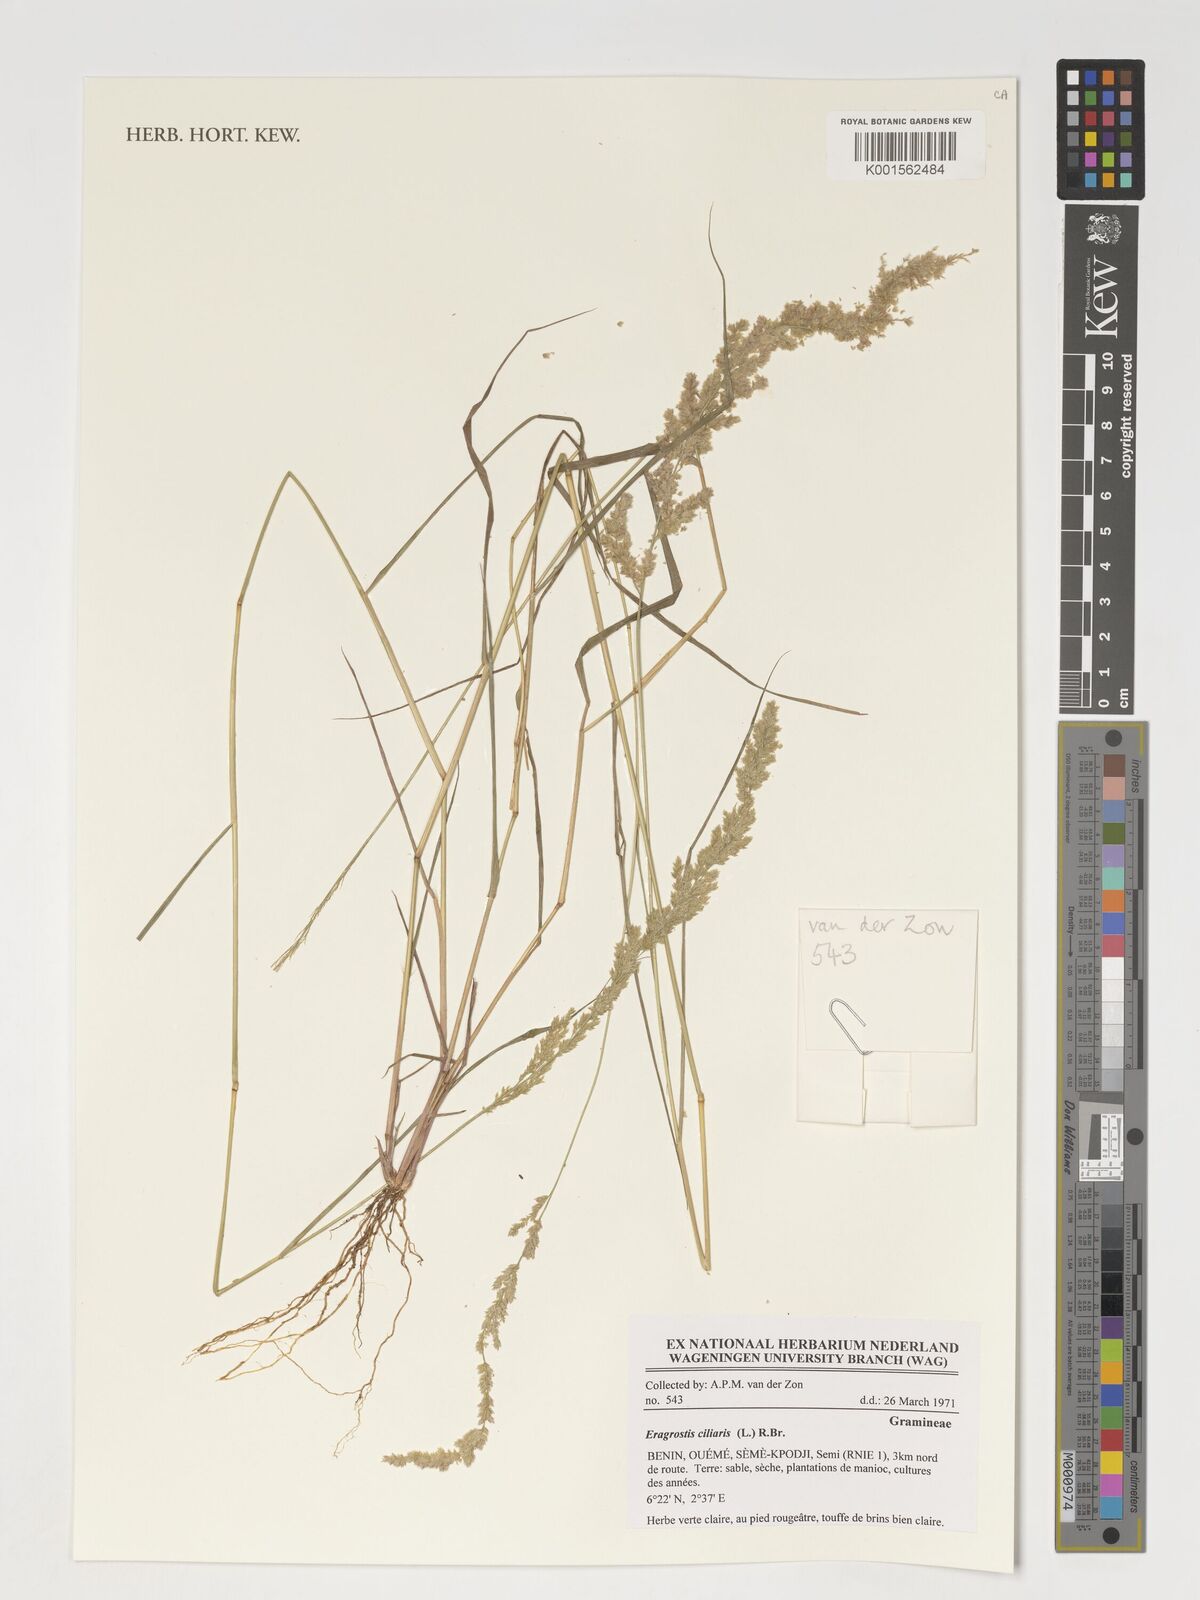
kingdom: Plantae
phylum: Tracheophyta
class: Liliopsida
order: Poales
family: Poaceae
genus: Eragrostis
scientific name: Eragrostis ciliaris
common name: Gophertail lovegrass
